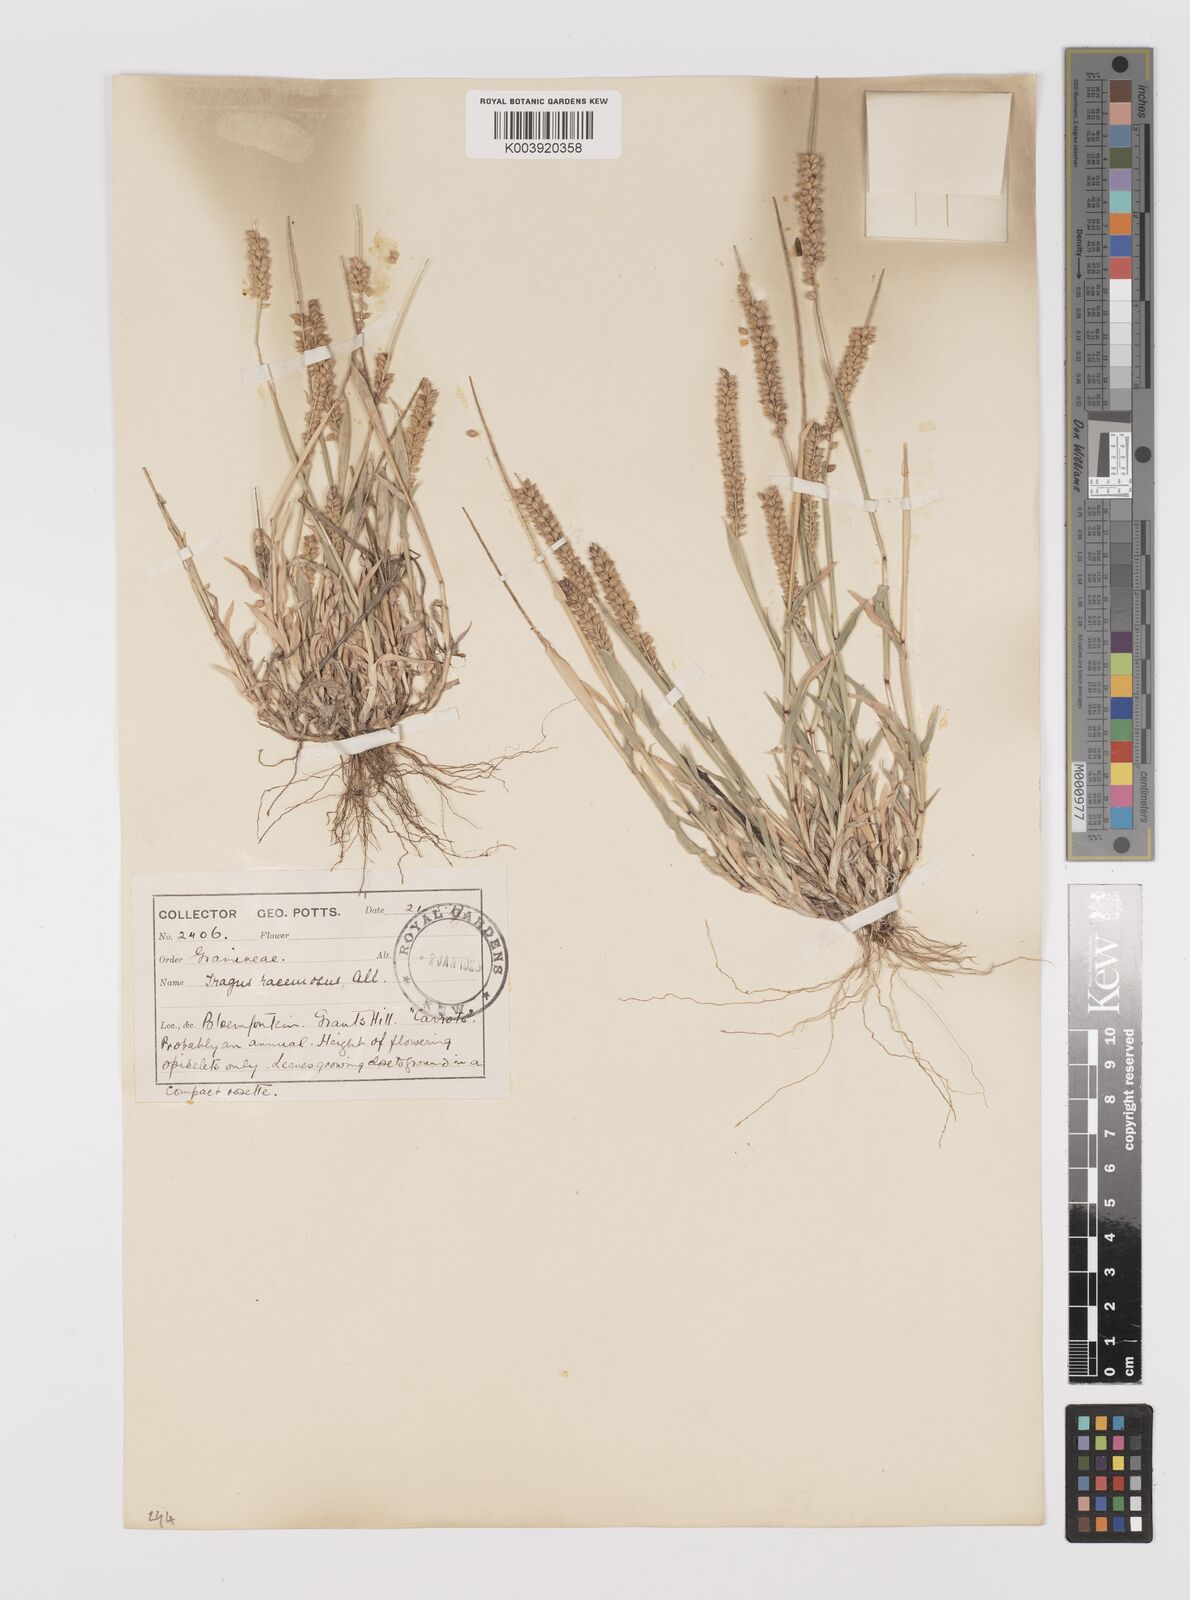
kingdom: Plantae
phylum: Tracheophyta
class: Liliopsida
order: Poales
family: Poaceae
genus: Tragus
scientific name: Tragus berteronianus
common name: African bur-grass
